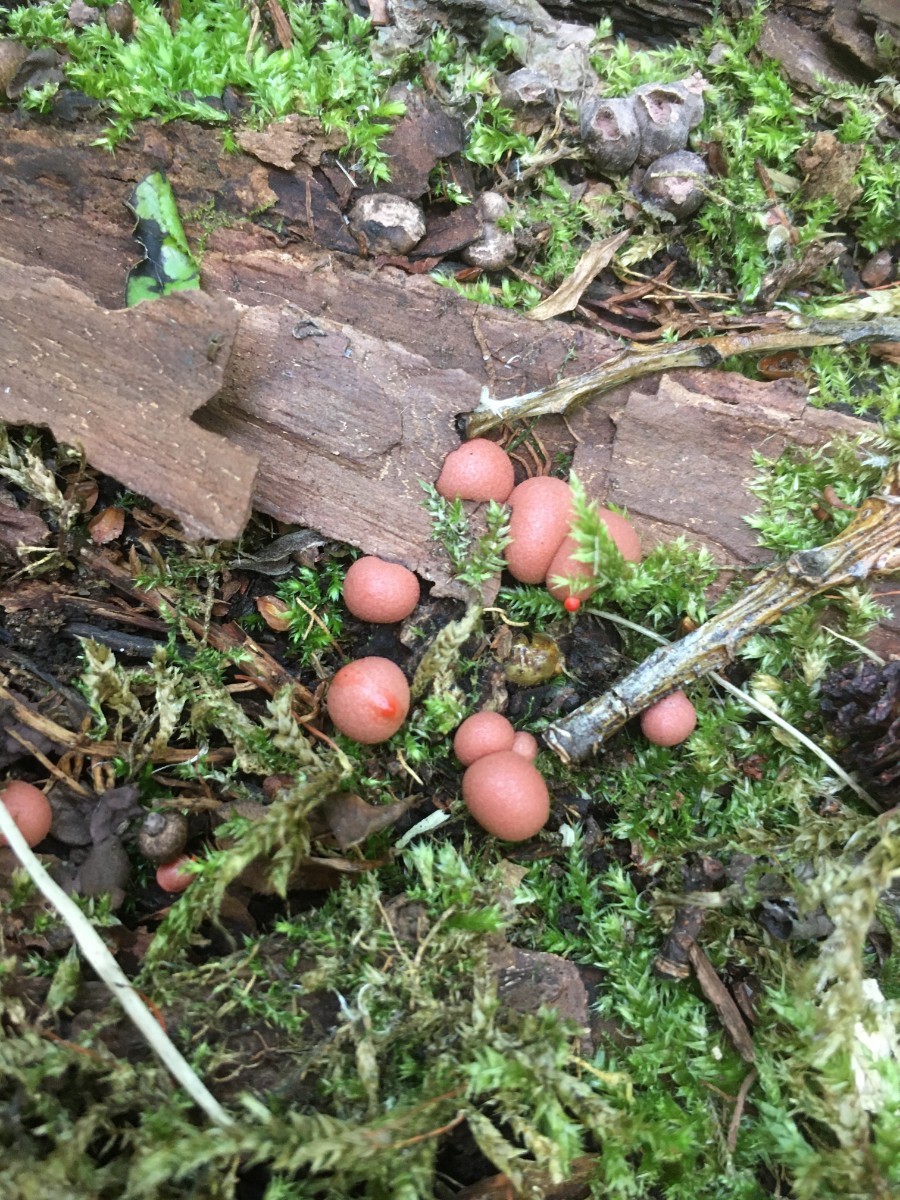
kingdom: Protozoa
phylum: Mycetozoa
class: Myxomycetes
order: Cribrariales
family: Tubiferaceae
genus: Lycogala
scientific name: Lycogala epidendrum
